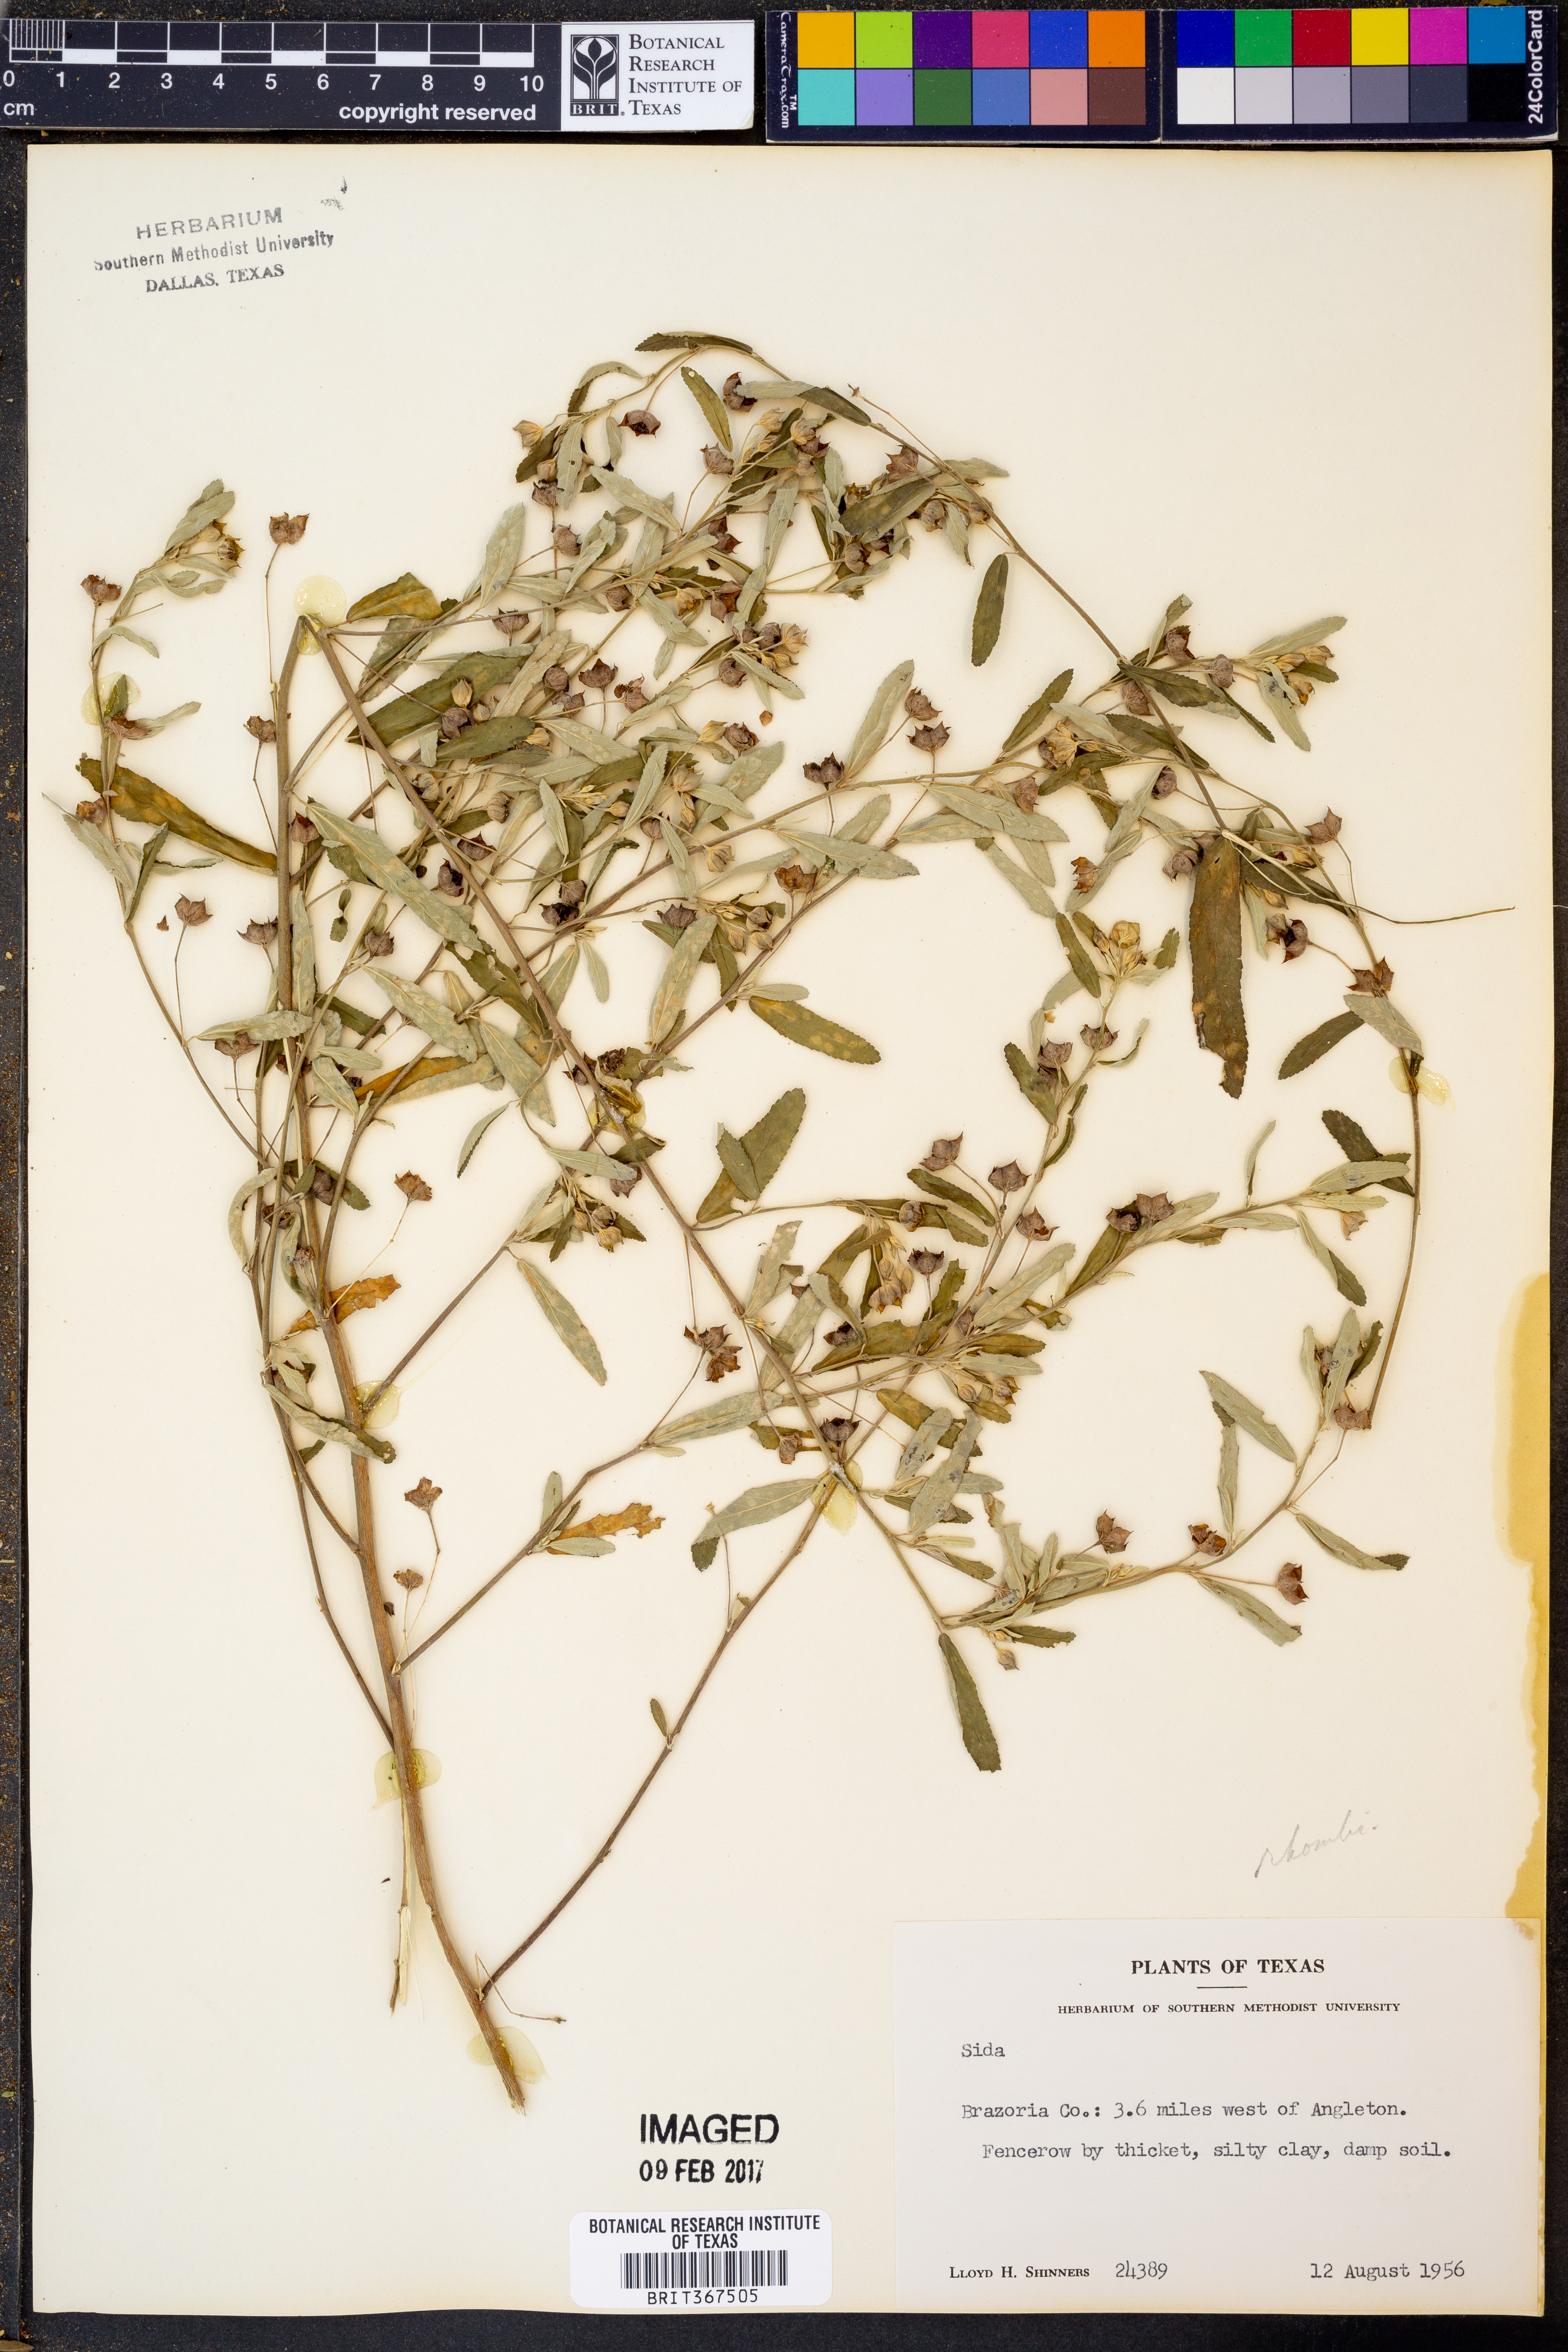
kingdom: Plantae
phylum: Tracheophyta
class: Magnoliopsida
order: Malvales
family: Malvaceae
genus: Sida
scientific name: Sida
